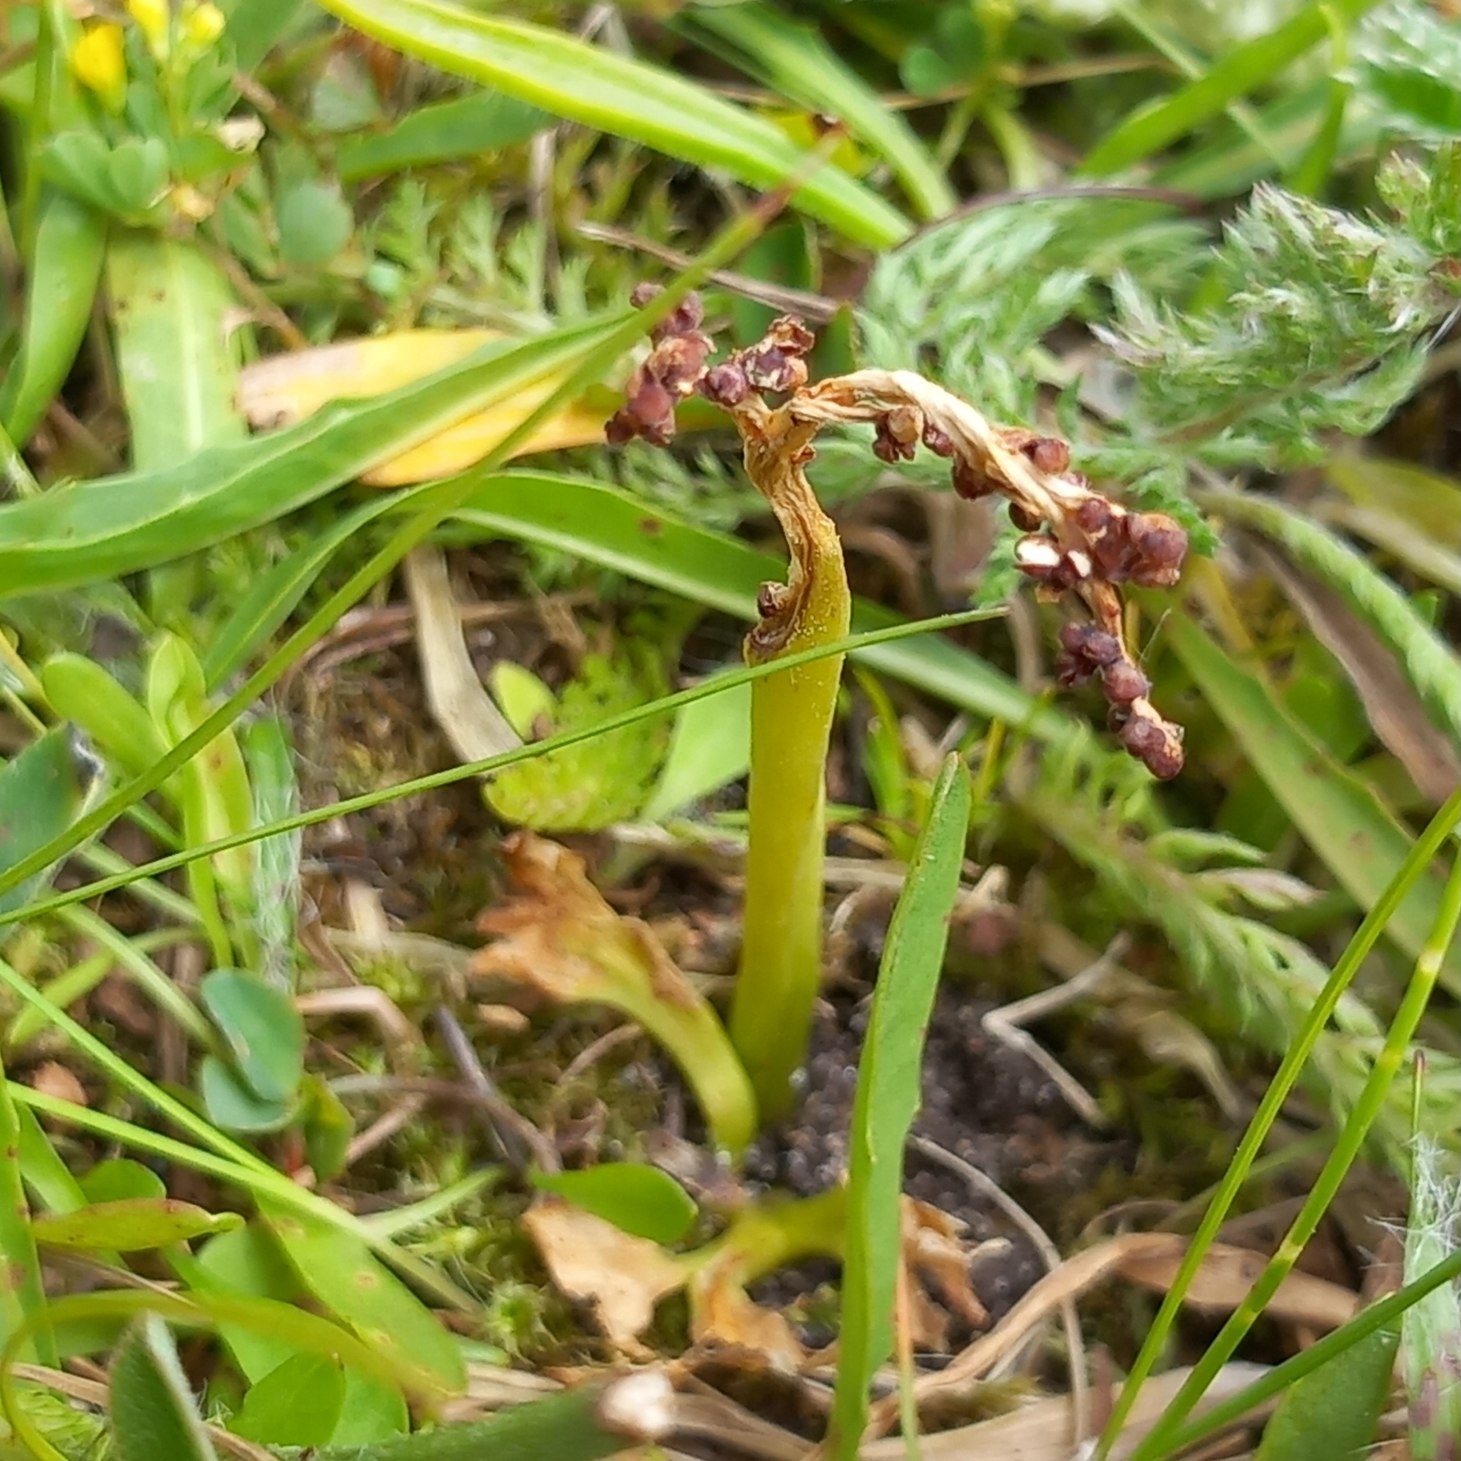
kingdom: Plantae
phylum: Tracheophyta
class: Polypodiopsida
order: Ophioglossales
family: Ophioglossaceae
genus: Sceptridium
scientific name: Sceptridium multifidum
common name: Stilk-månerude
